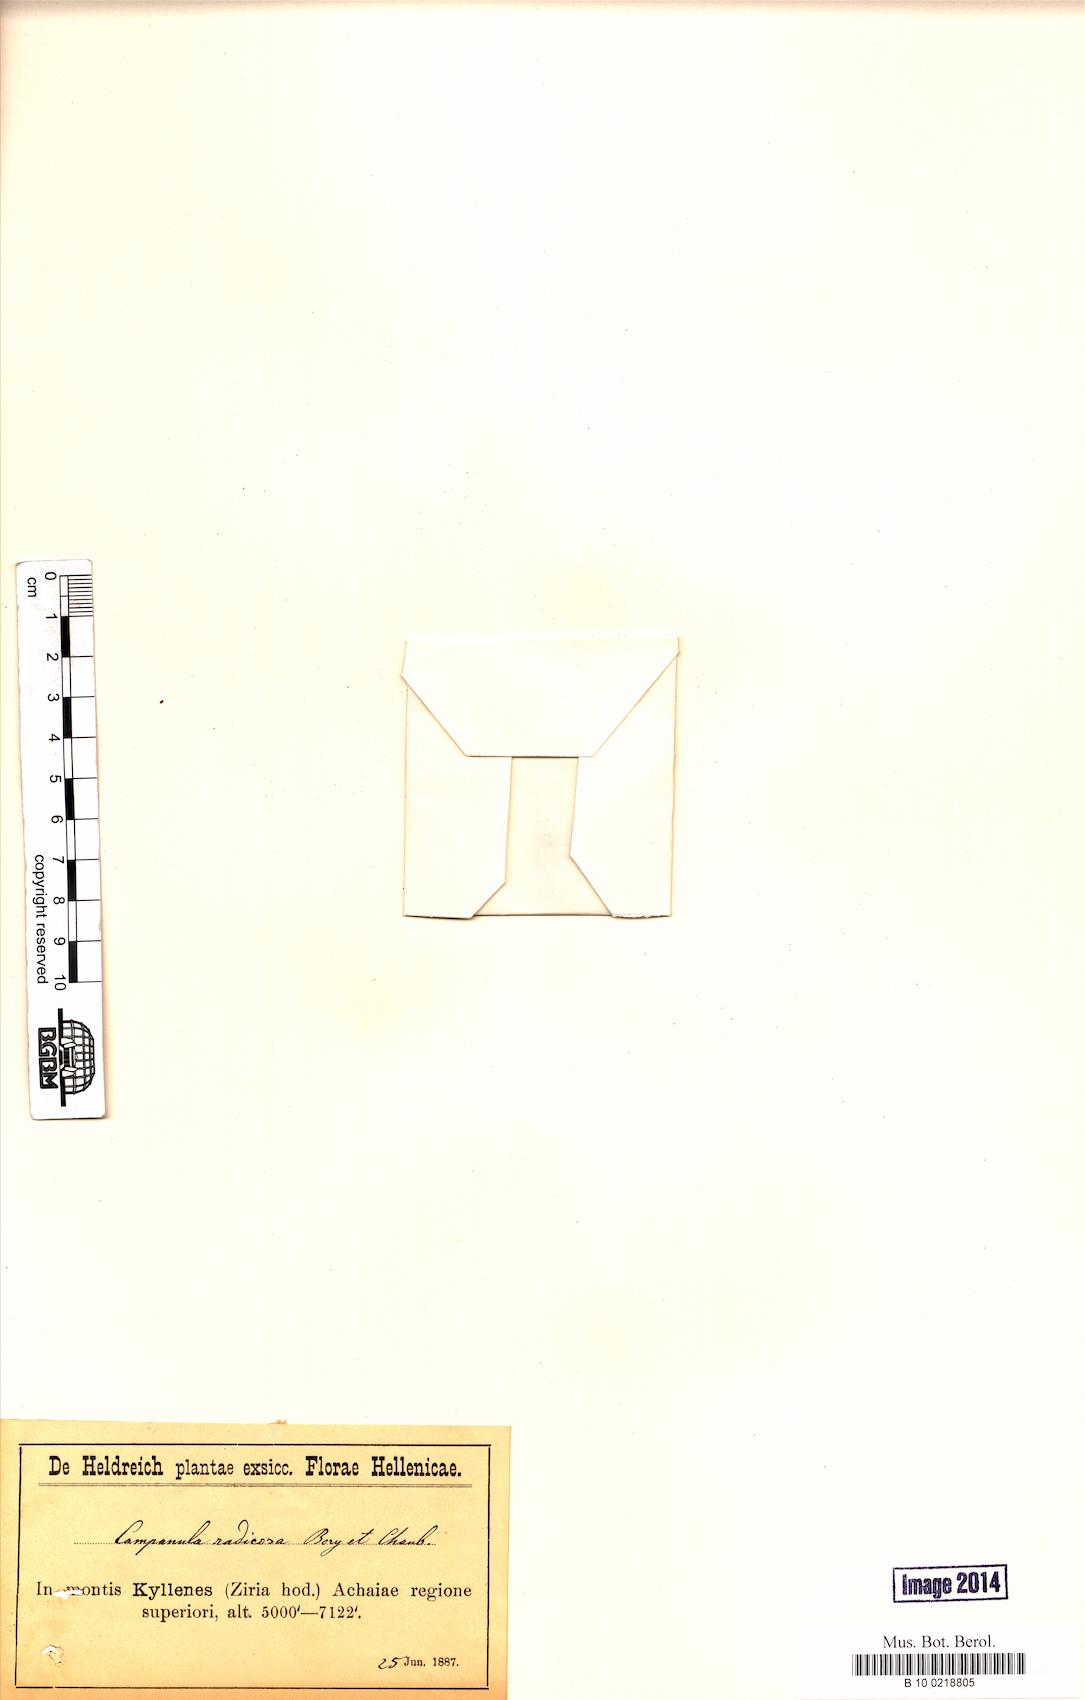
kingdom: Plantae
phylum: Tracheophyta
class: Magnoliopsida
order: Asterales
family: Campanulaceae
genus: Campanula
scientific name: Campanula radicosa
